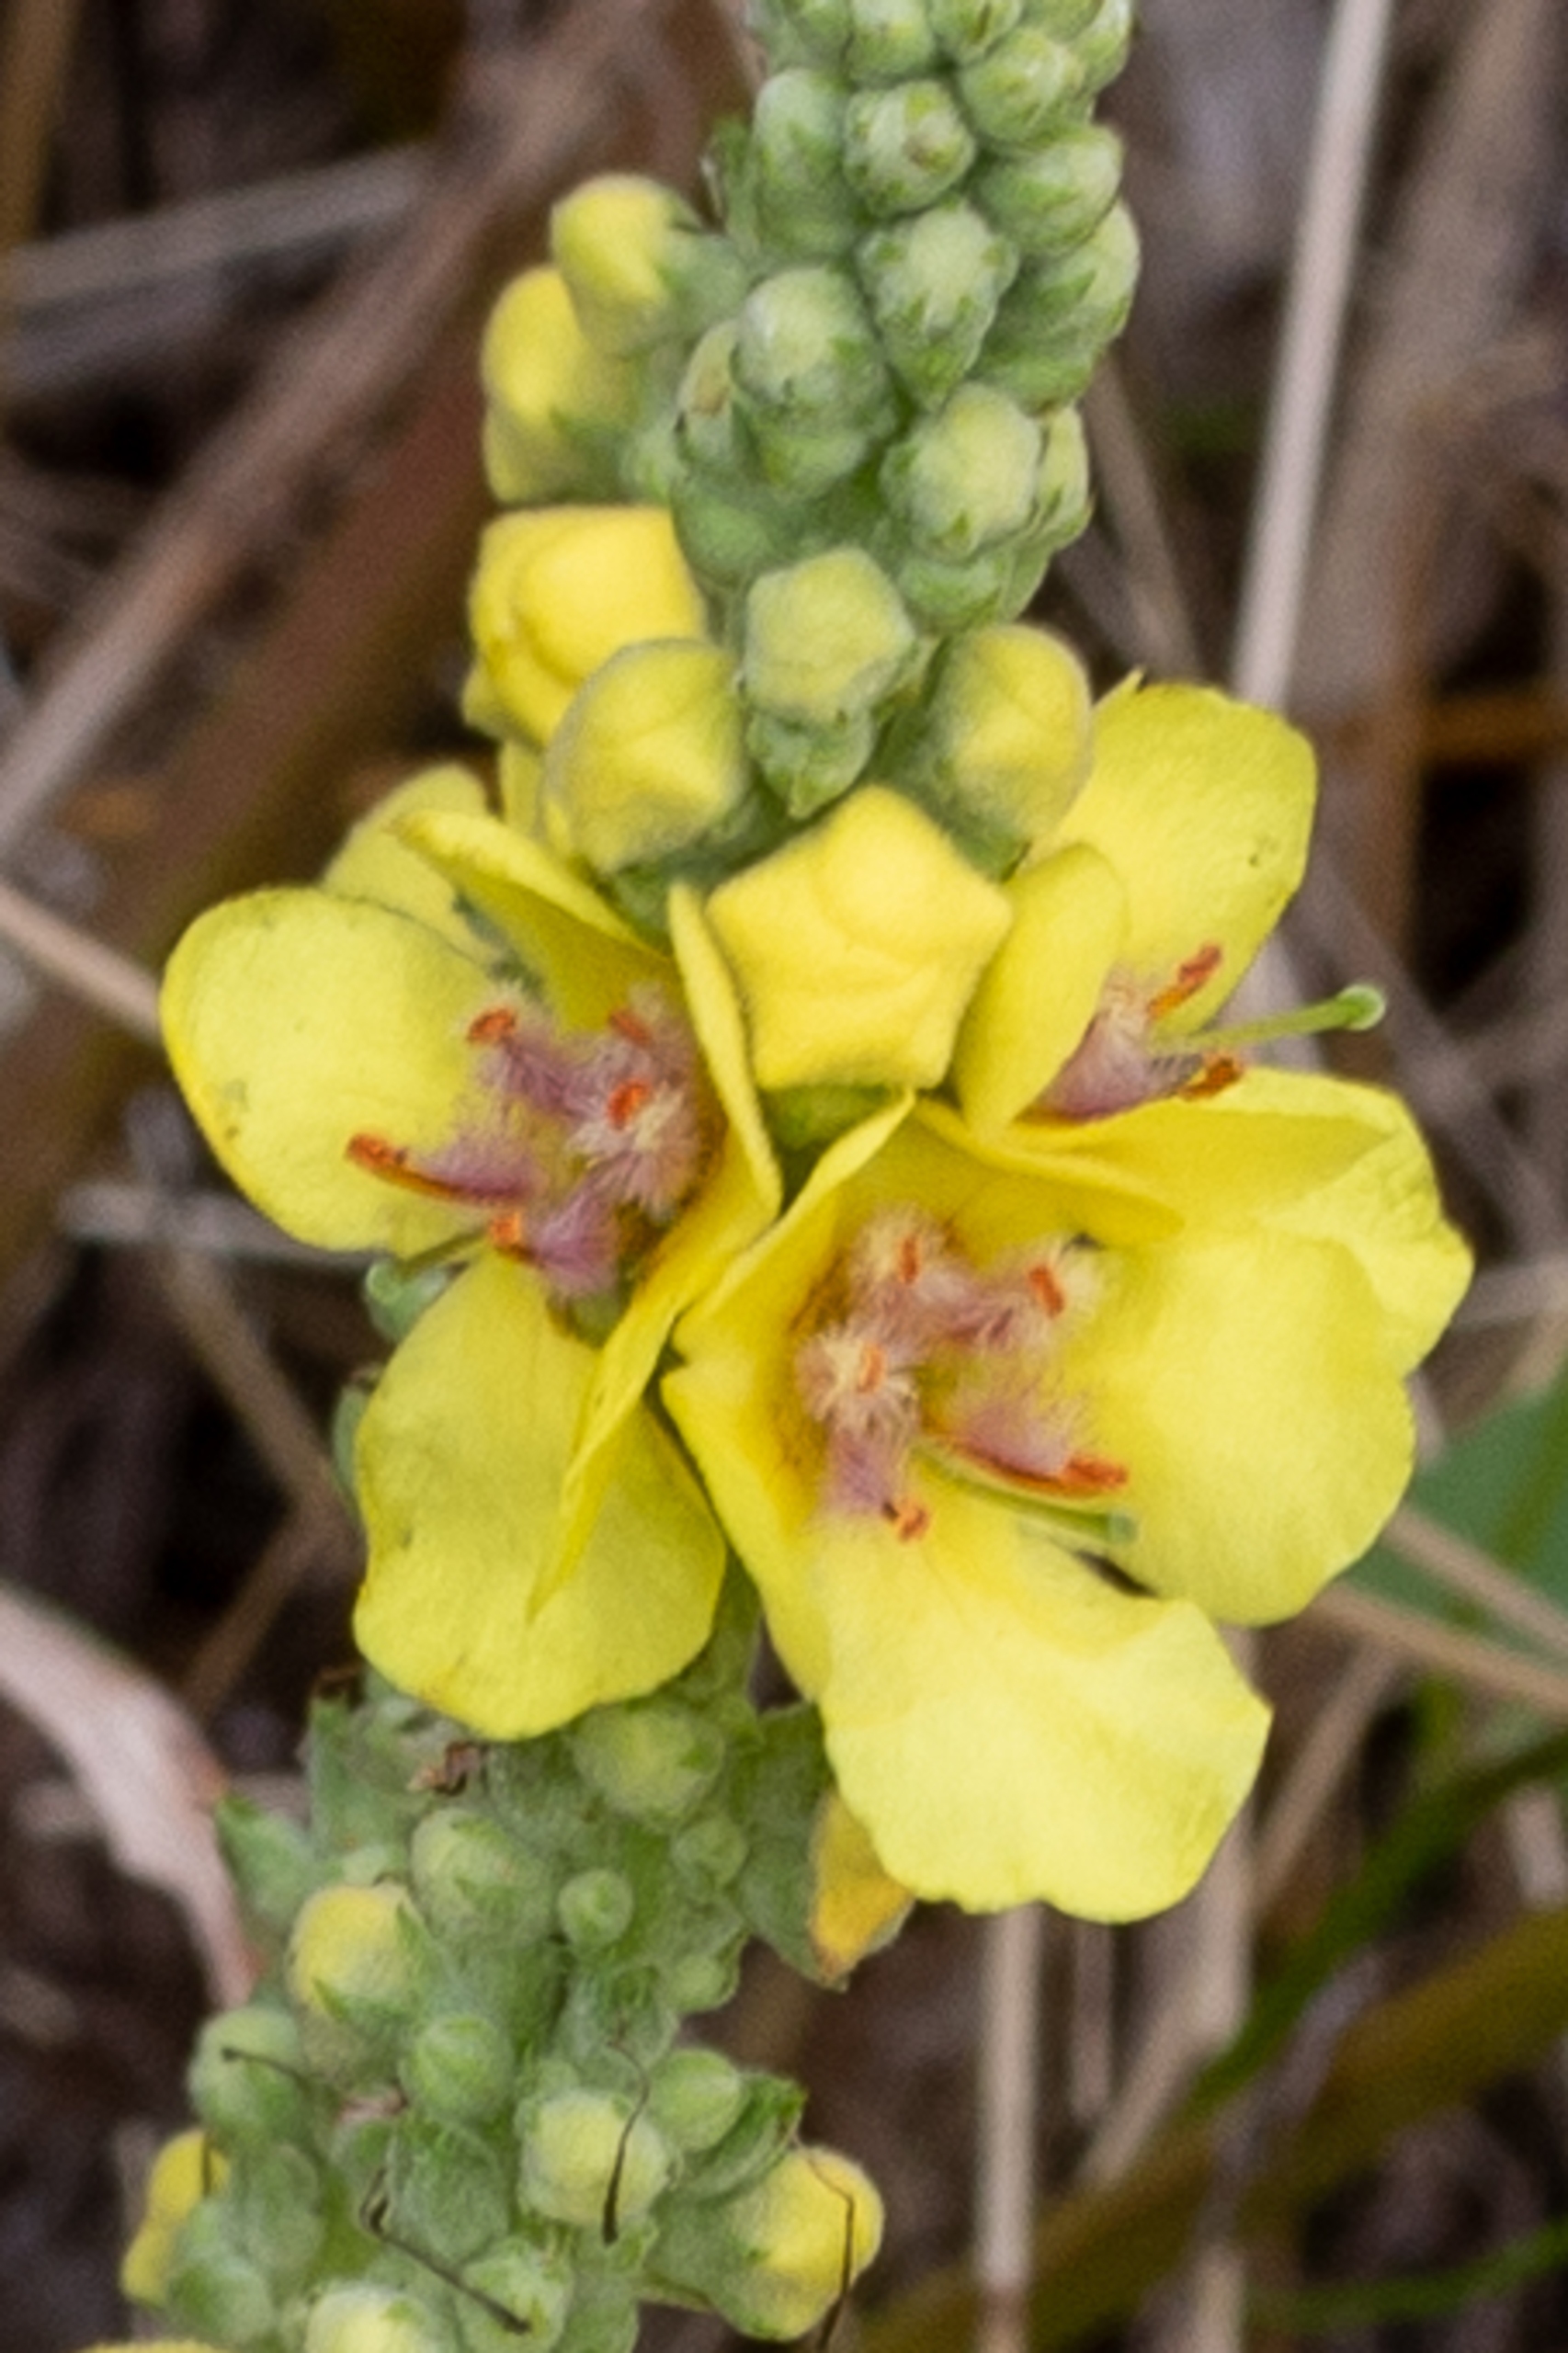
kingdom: Plantae
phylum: Tracheophyta
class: Magnoliopsida
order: Lamiales
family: Scrophulariaceae
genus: Verbascum
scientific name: Verbascum
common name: Uldbladet kongelys × mørk kongelys
